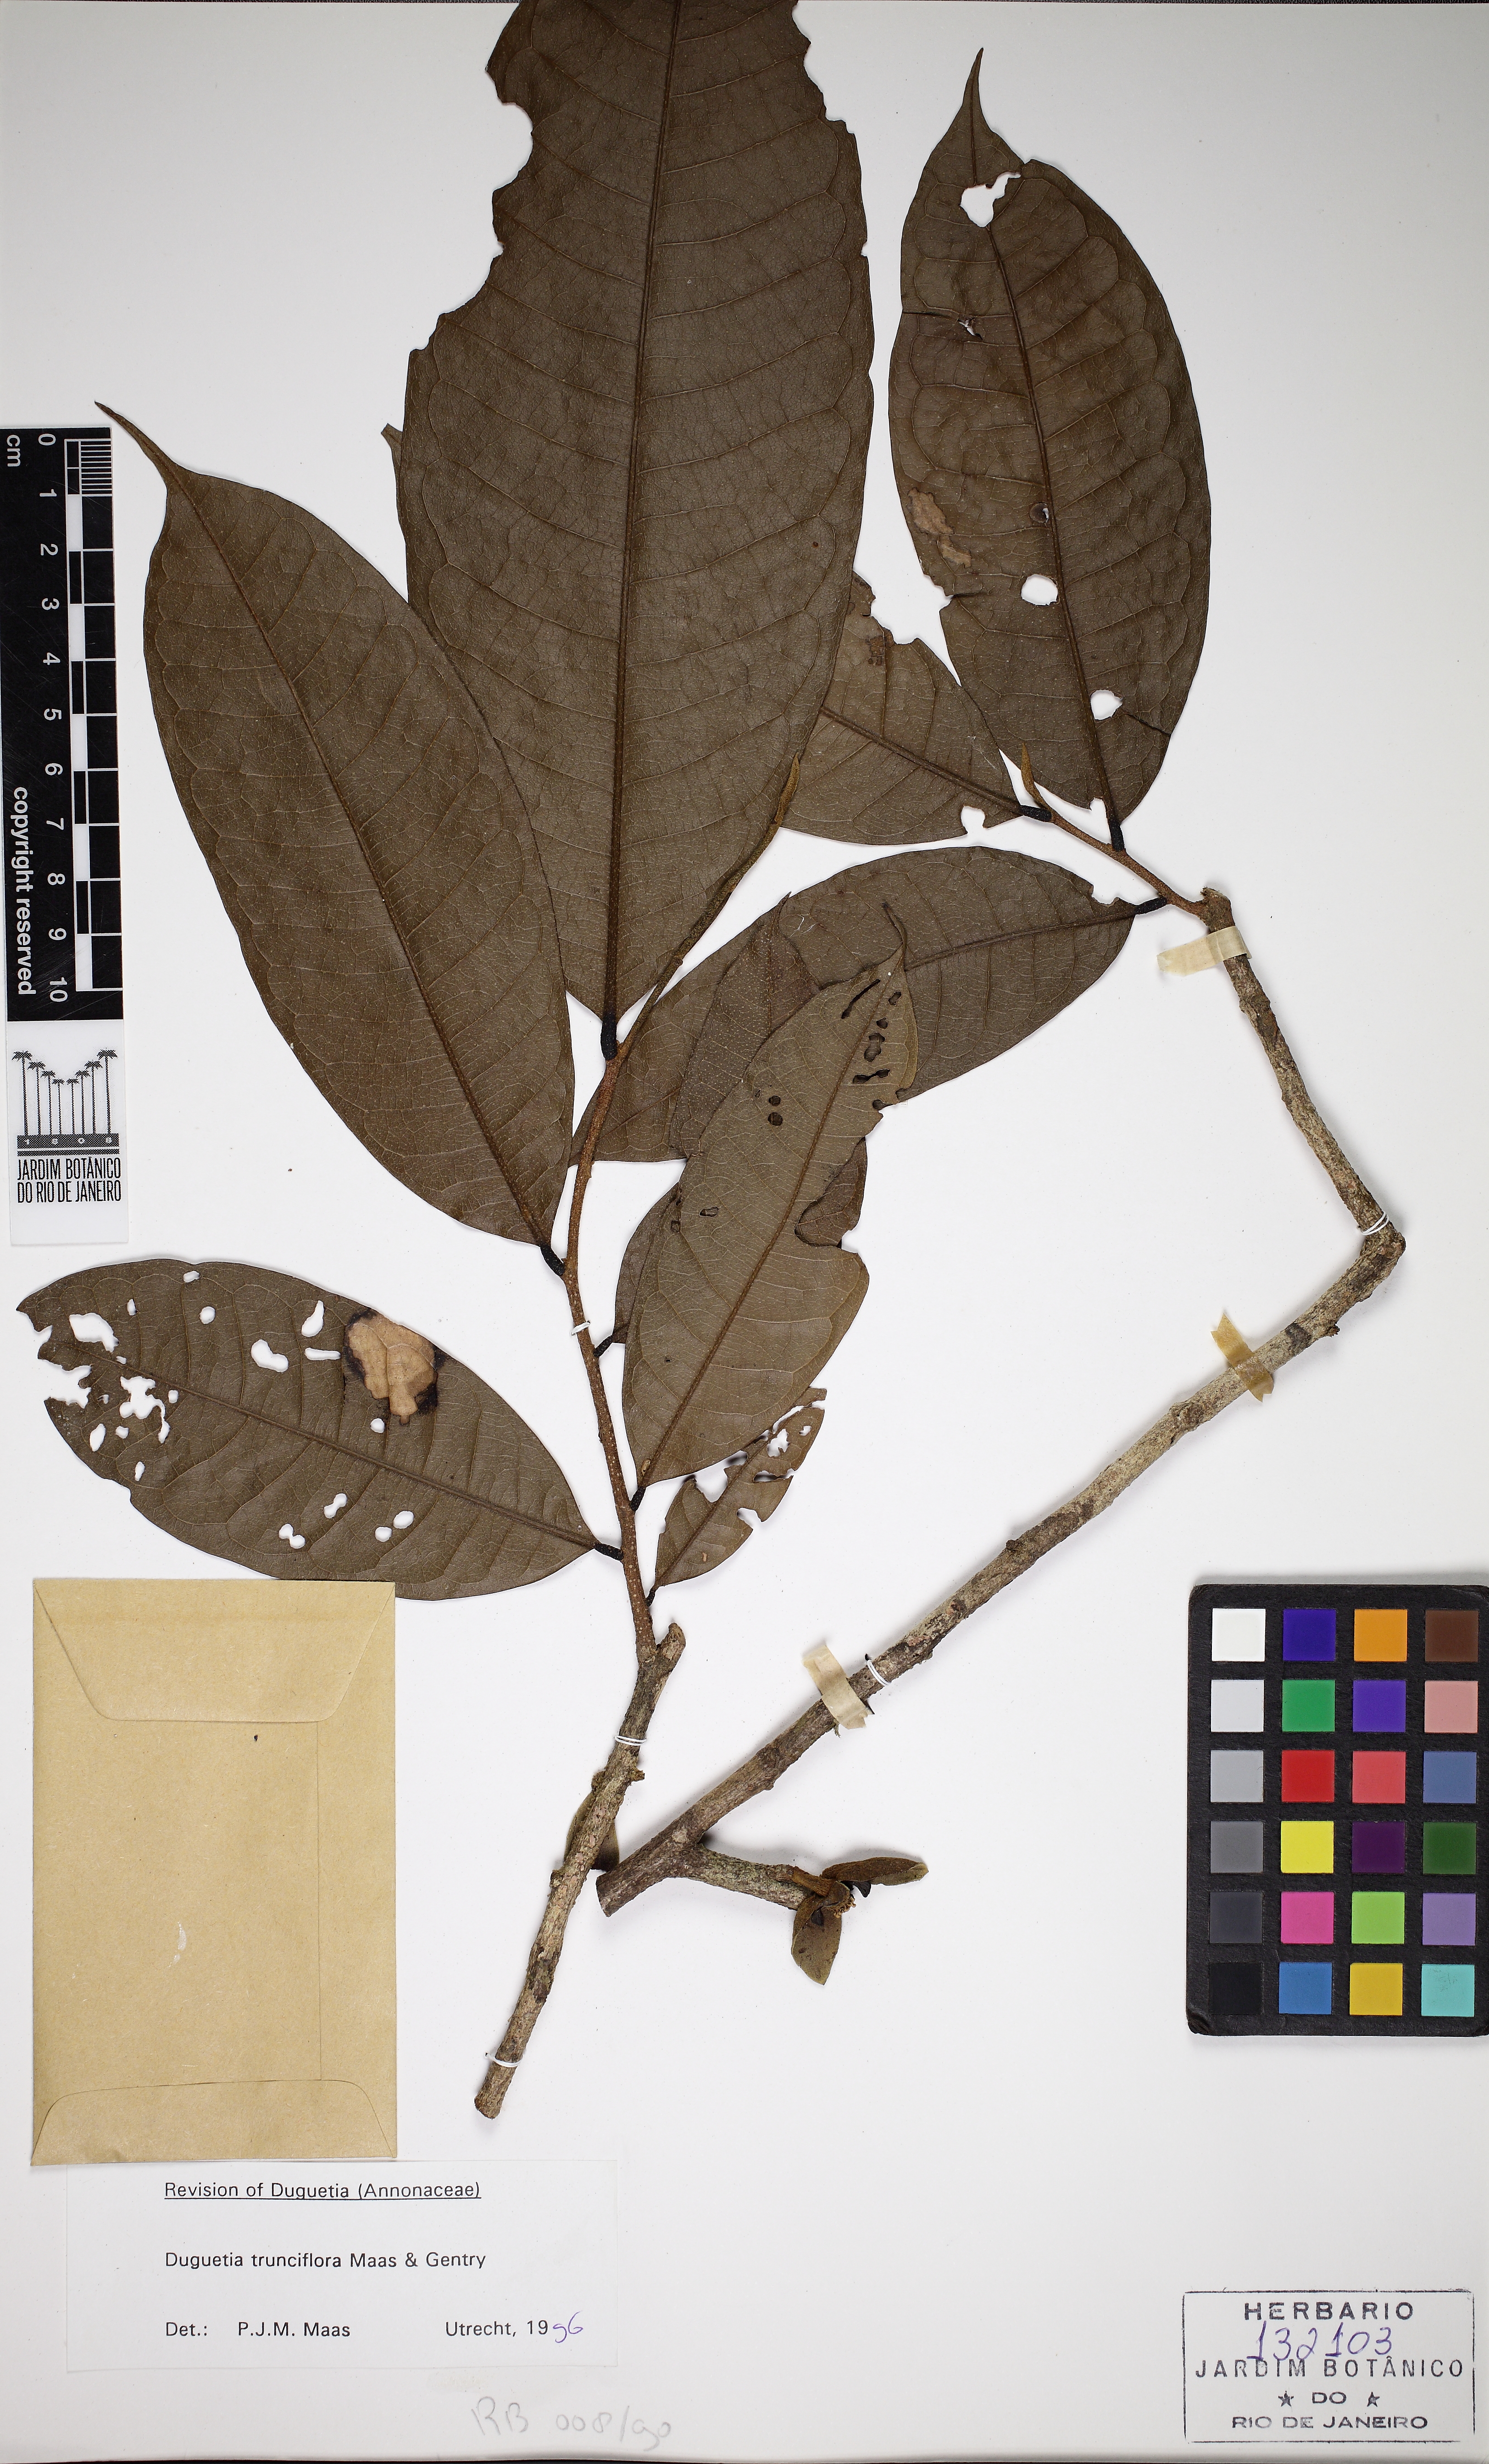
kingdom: Plantae
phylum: Tracheophyta
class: Magnoliopsida
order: Magnoliales
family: Annonaceae
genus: Duguetia
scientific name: Duguetia trunciflora
